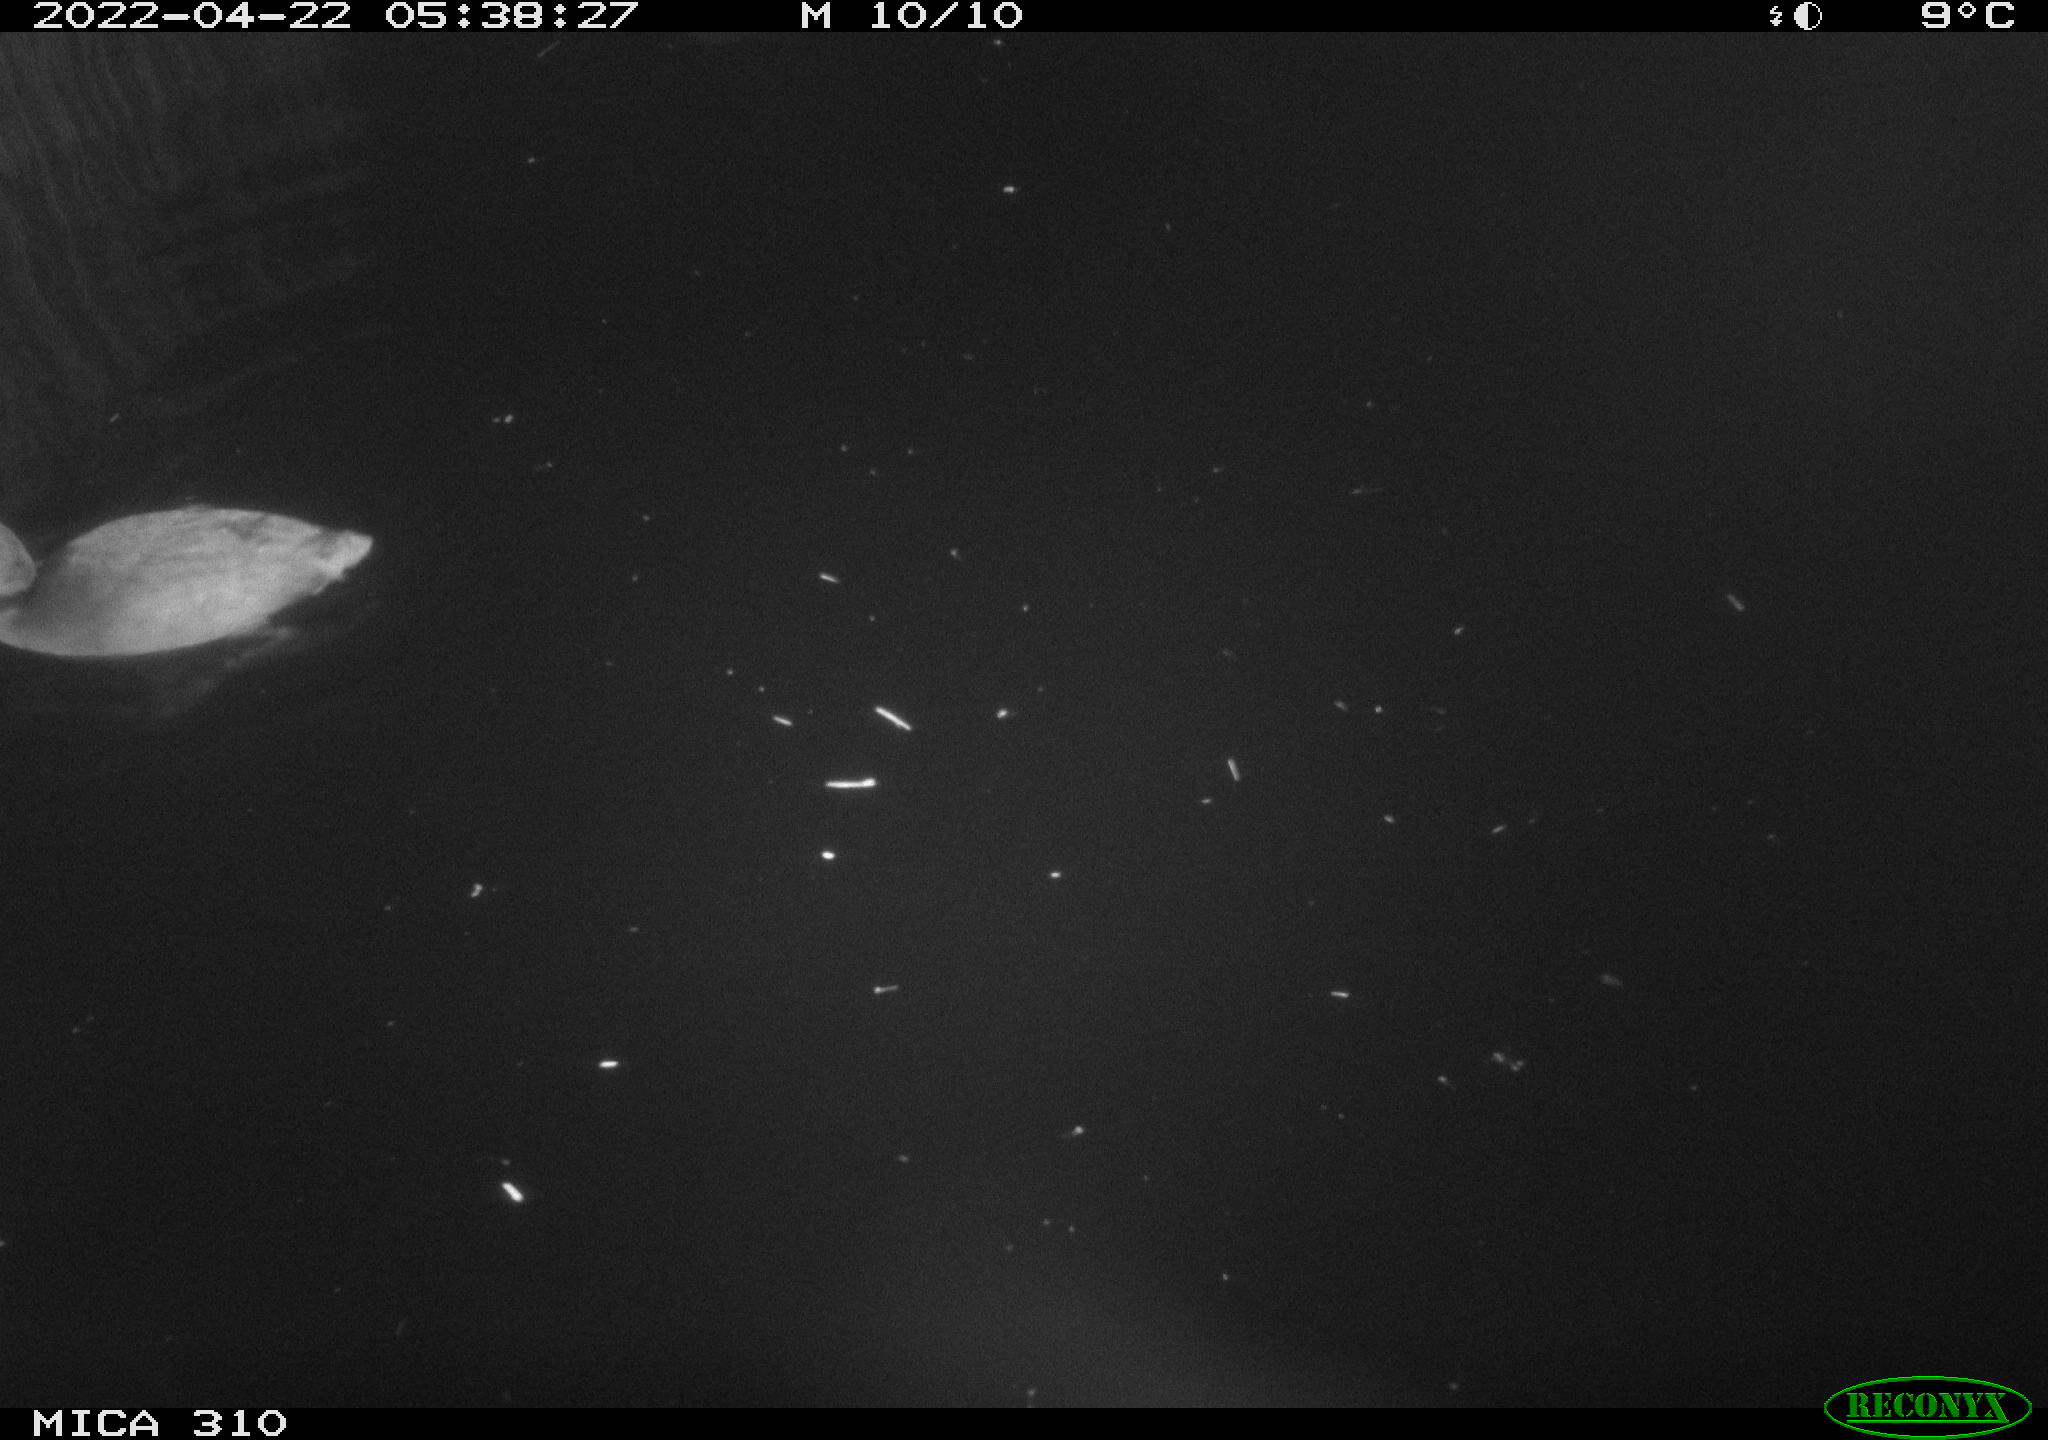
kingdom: Animalia
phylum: Chordata
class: Aves
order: Gruiformes
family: Rallidae
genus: Fulica
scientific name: Fulica atra
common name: Eurasian coot
